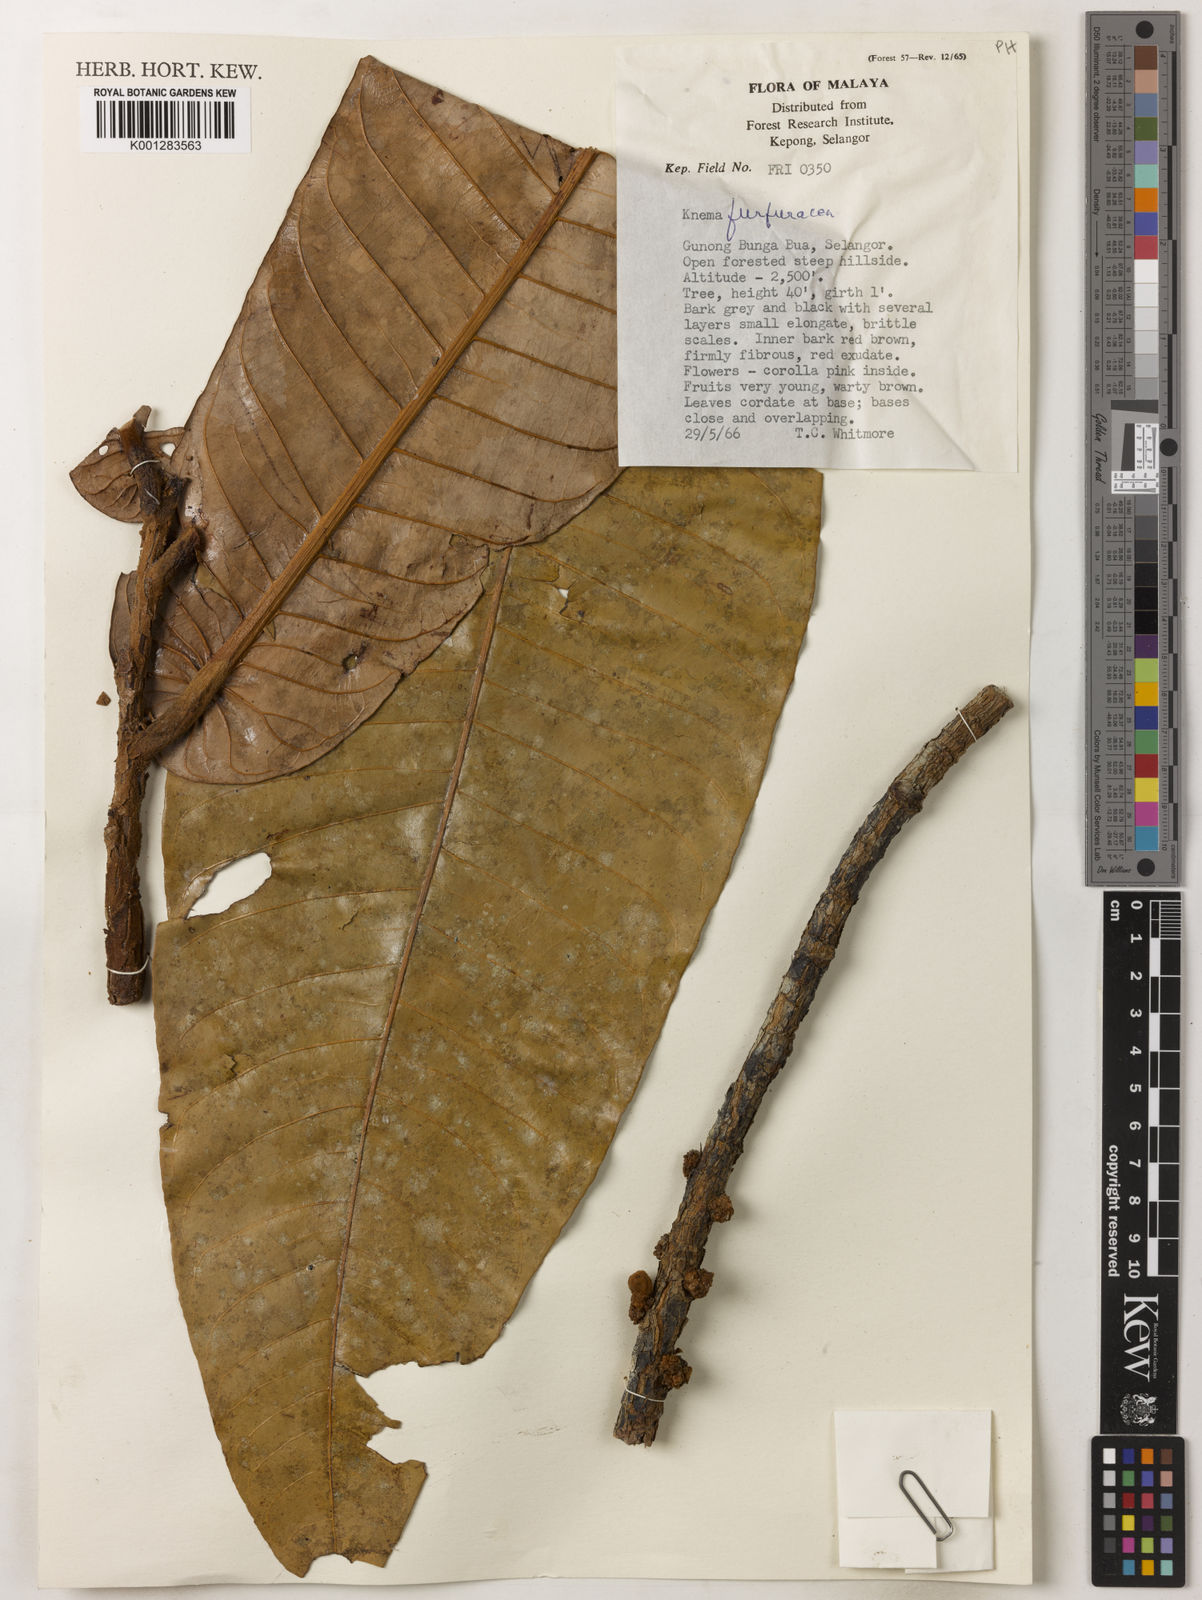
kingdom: Plantae
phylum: Tracheophyta
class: Magnoliopsida
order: Magnoliales
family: Myristicaceae
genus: Knema
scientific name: Knema furfuracea
